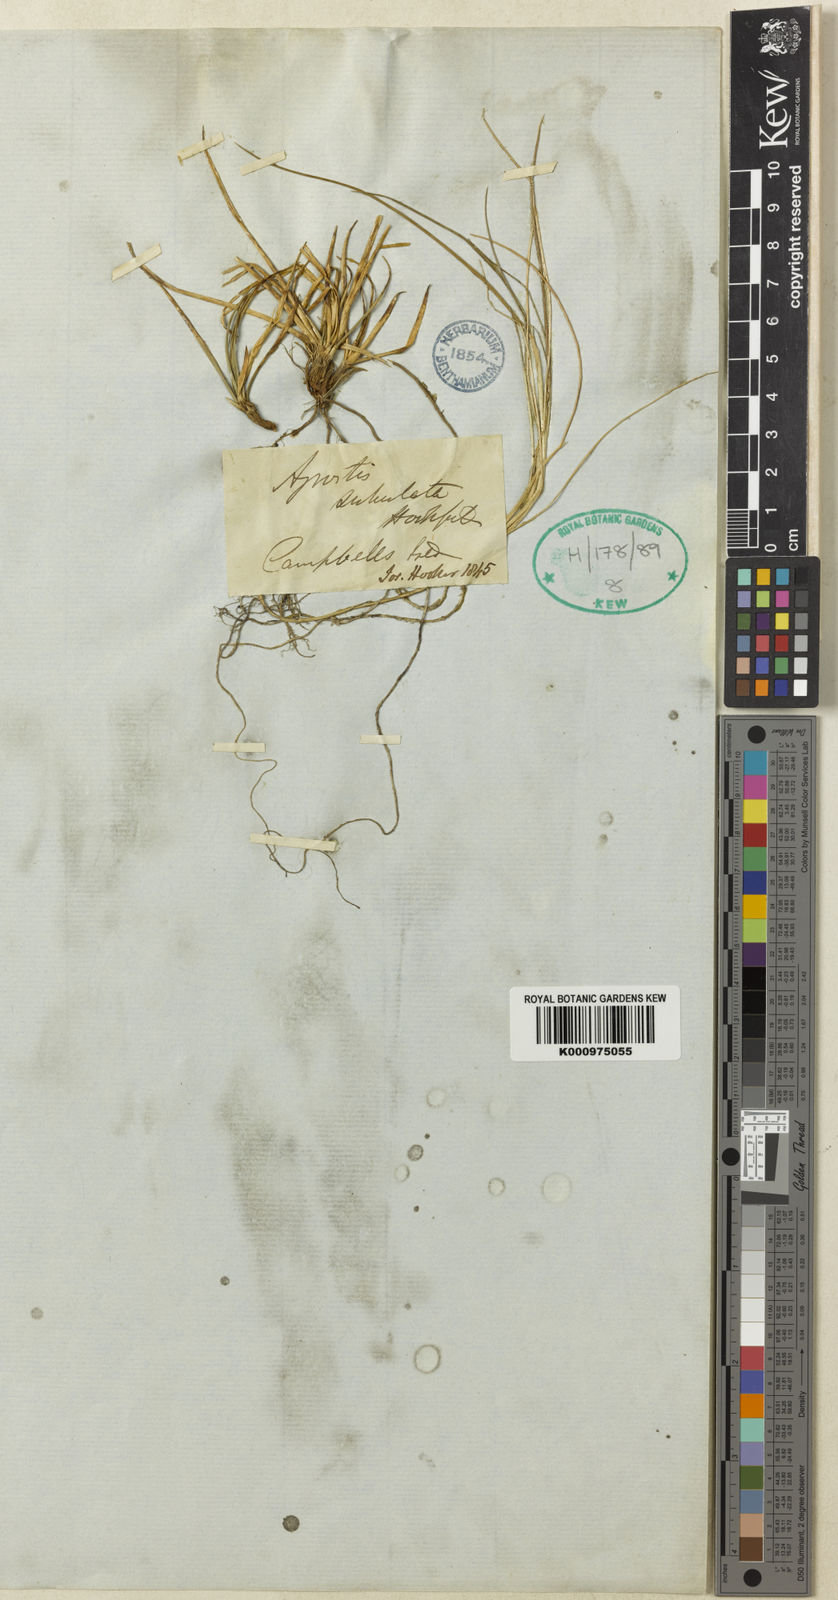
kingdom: Plantae
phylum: Tracheophyta
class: Liliopsida
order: Poales
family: Poaceae
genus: Agrostis
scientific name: Agrostis canina
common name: Velvet bent
